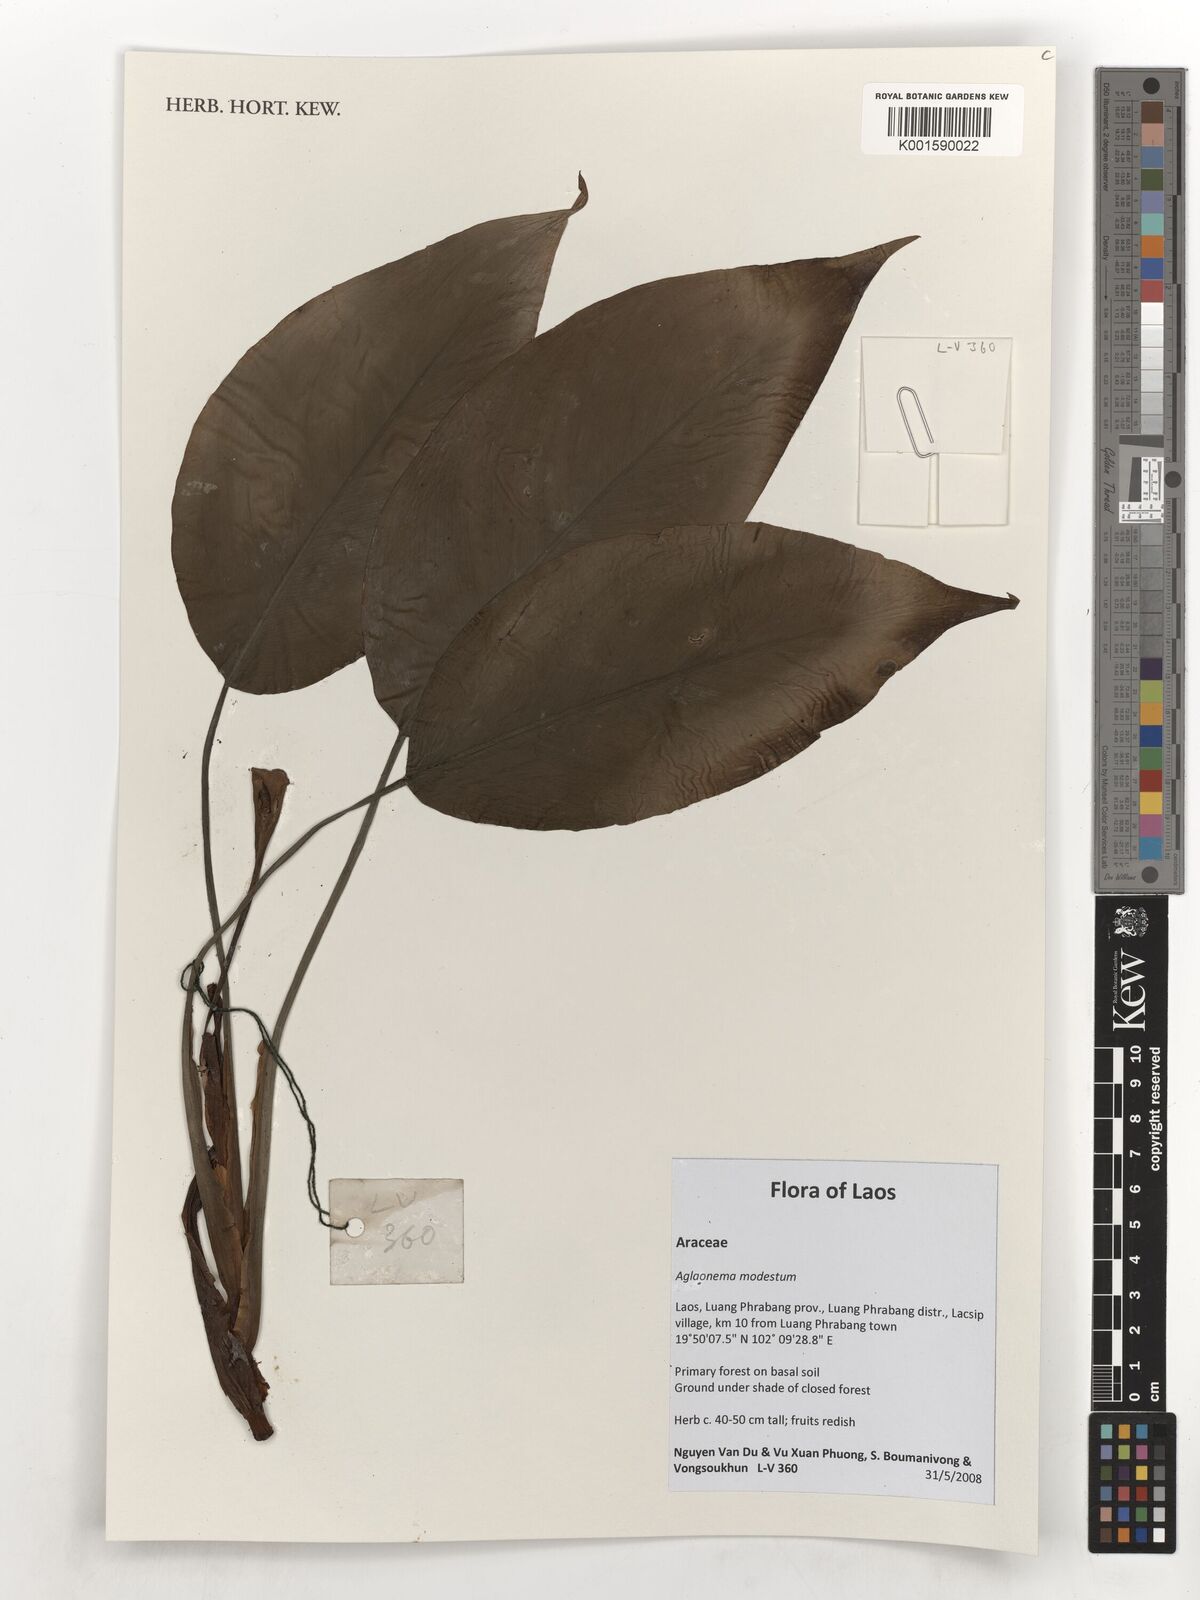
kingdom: Plantae
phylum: Tracheophyta
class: Liliopsida
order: Alismatales
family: Araceae
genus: Aglaonema
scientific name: Aglaonema modestum
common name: Chinese evergreen
